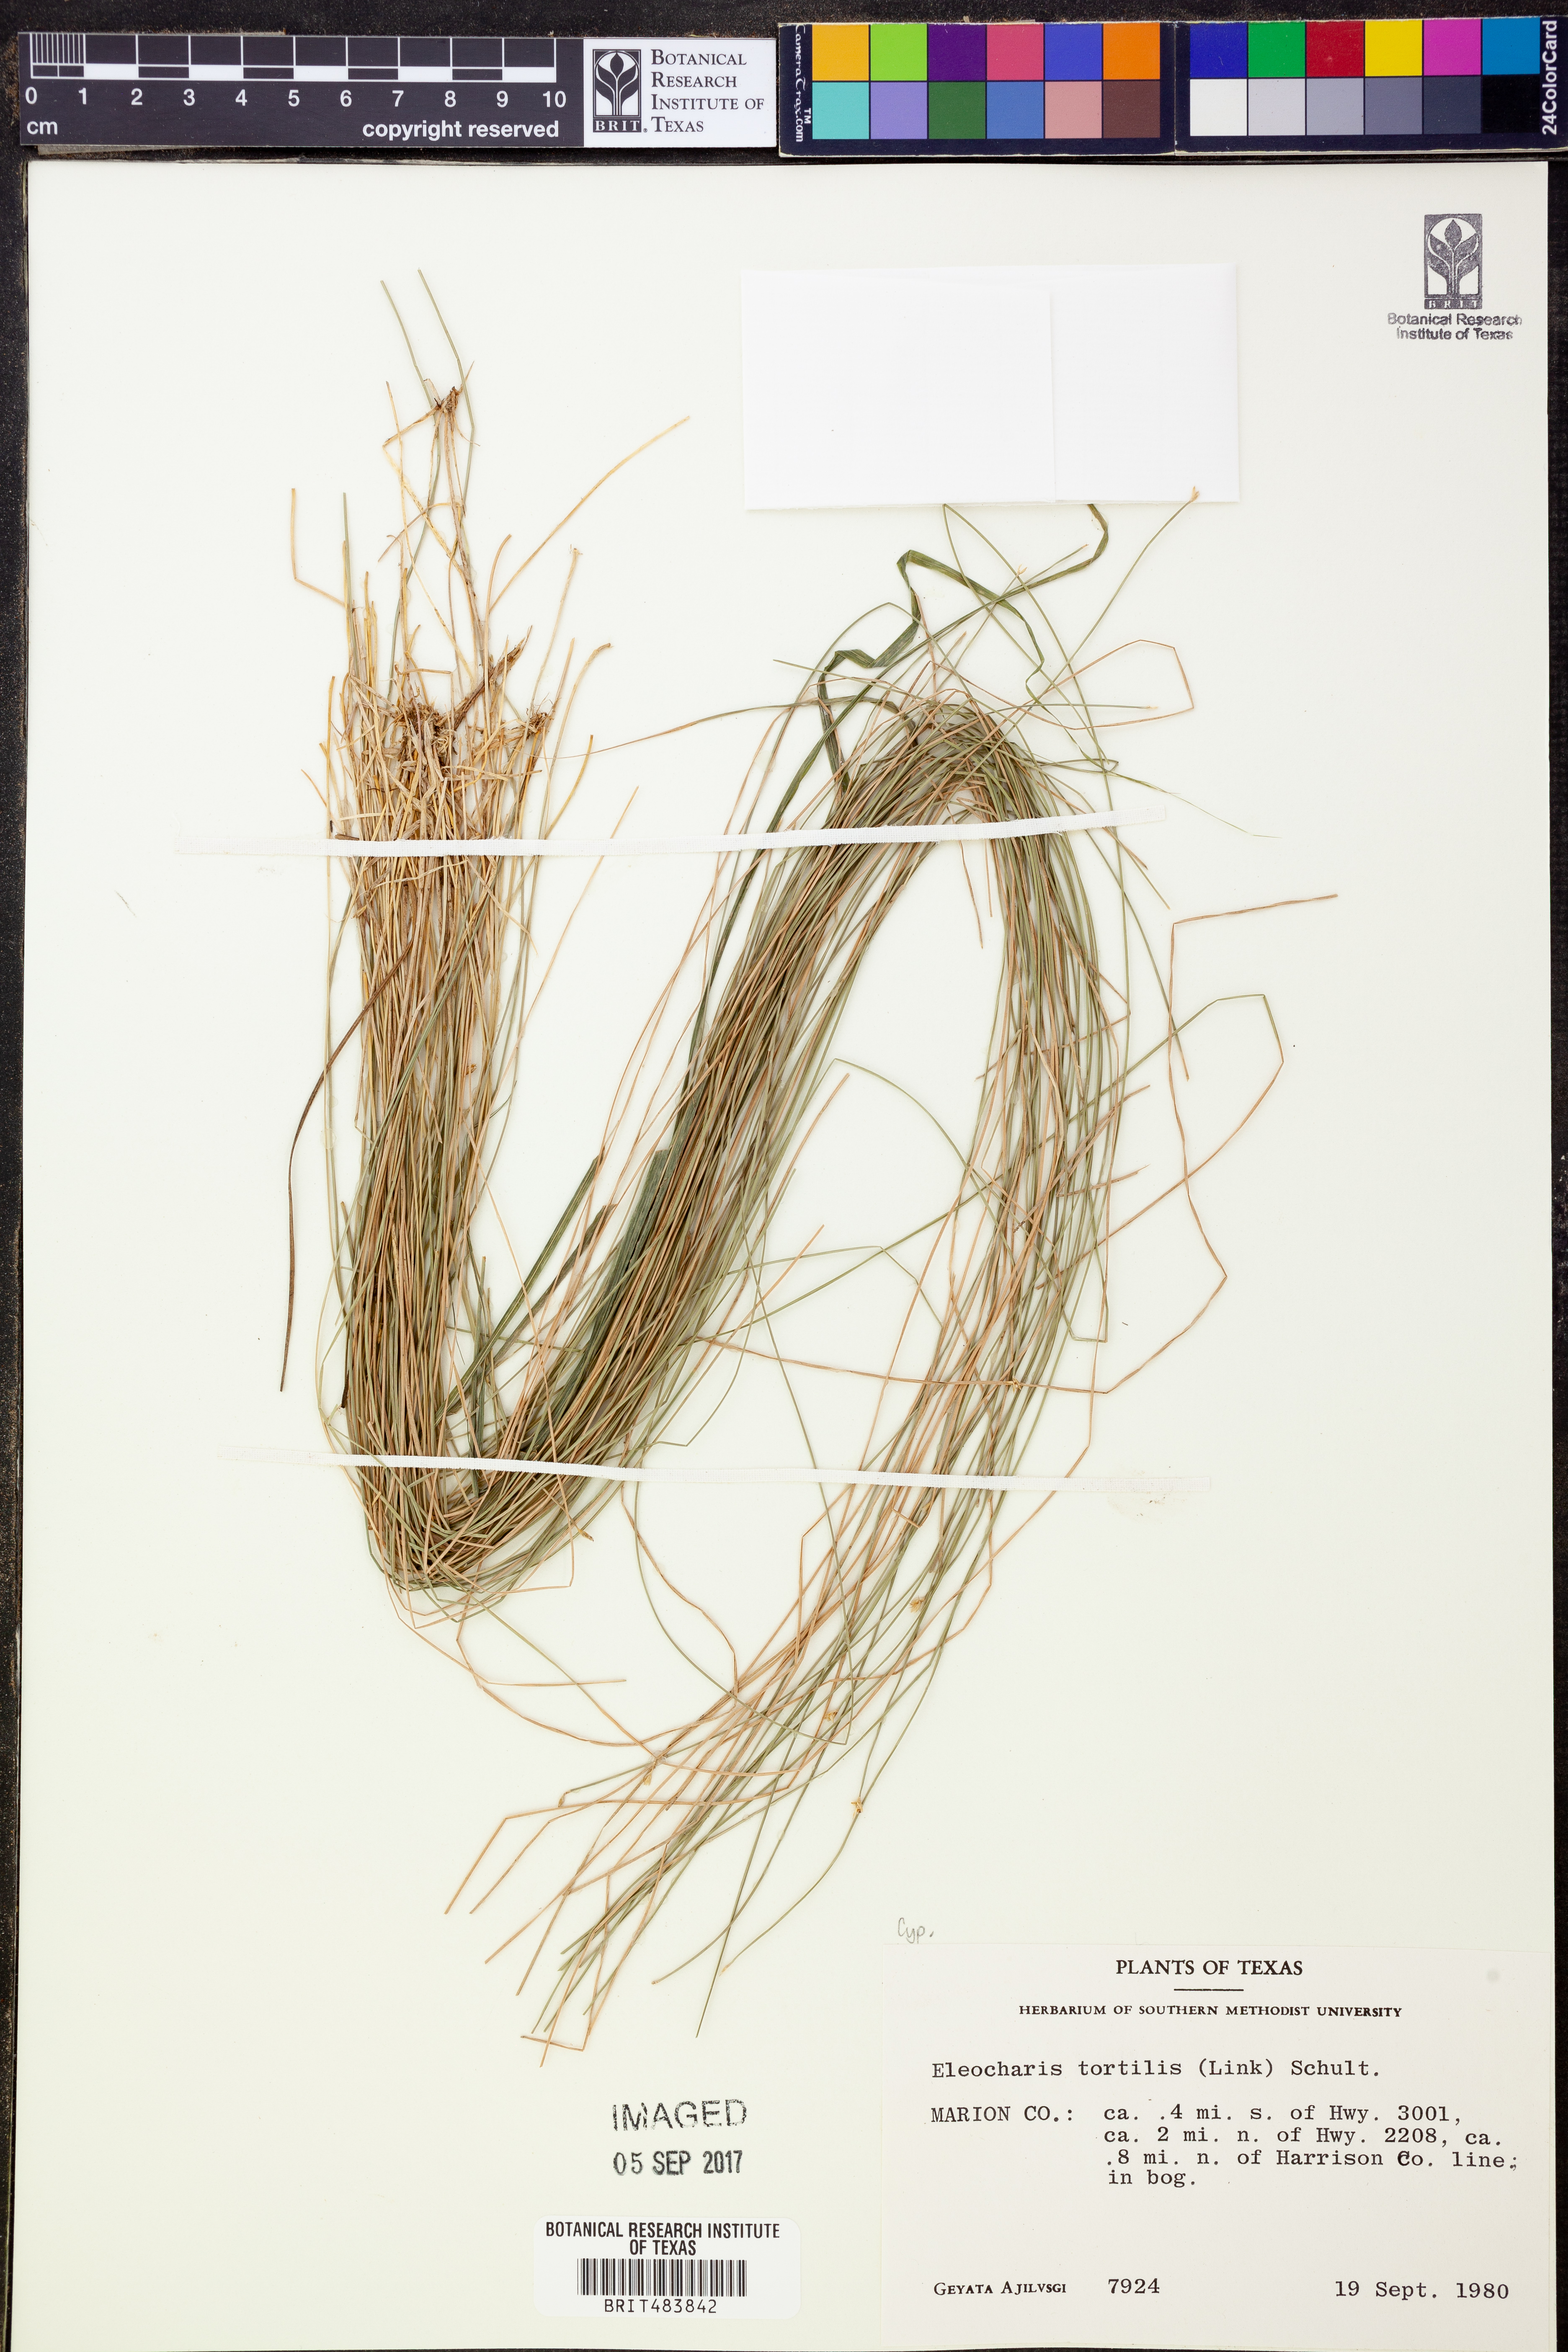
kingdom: Plantae
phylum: Tracheophyta
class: Liliopsida
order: Poales
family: Cyperaceae
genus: Eleocharis
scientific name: Eleocharis tortilis
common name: Twisted spike sedge
